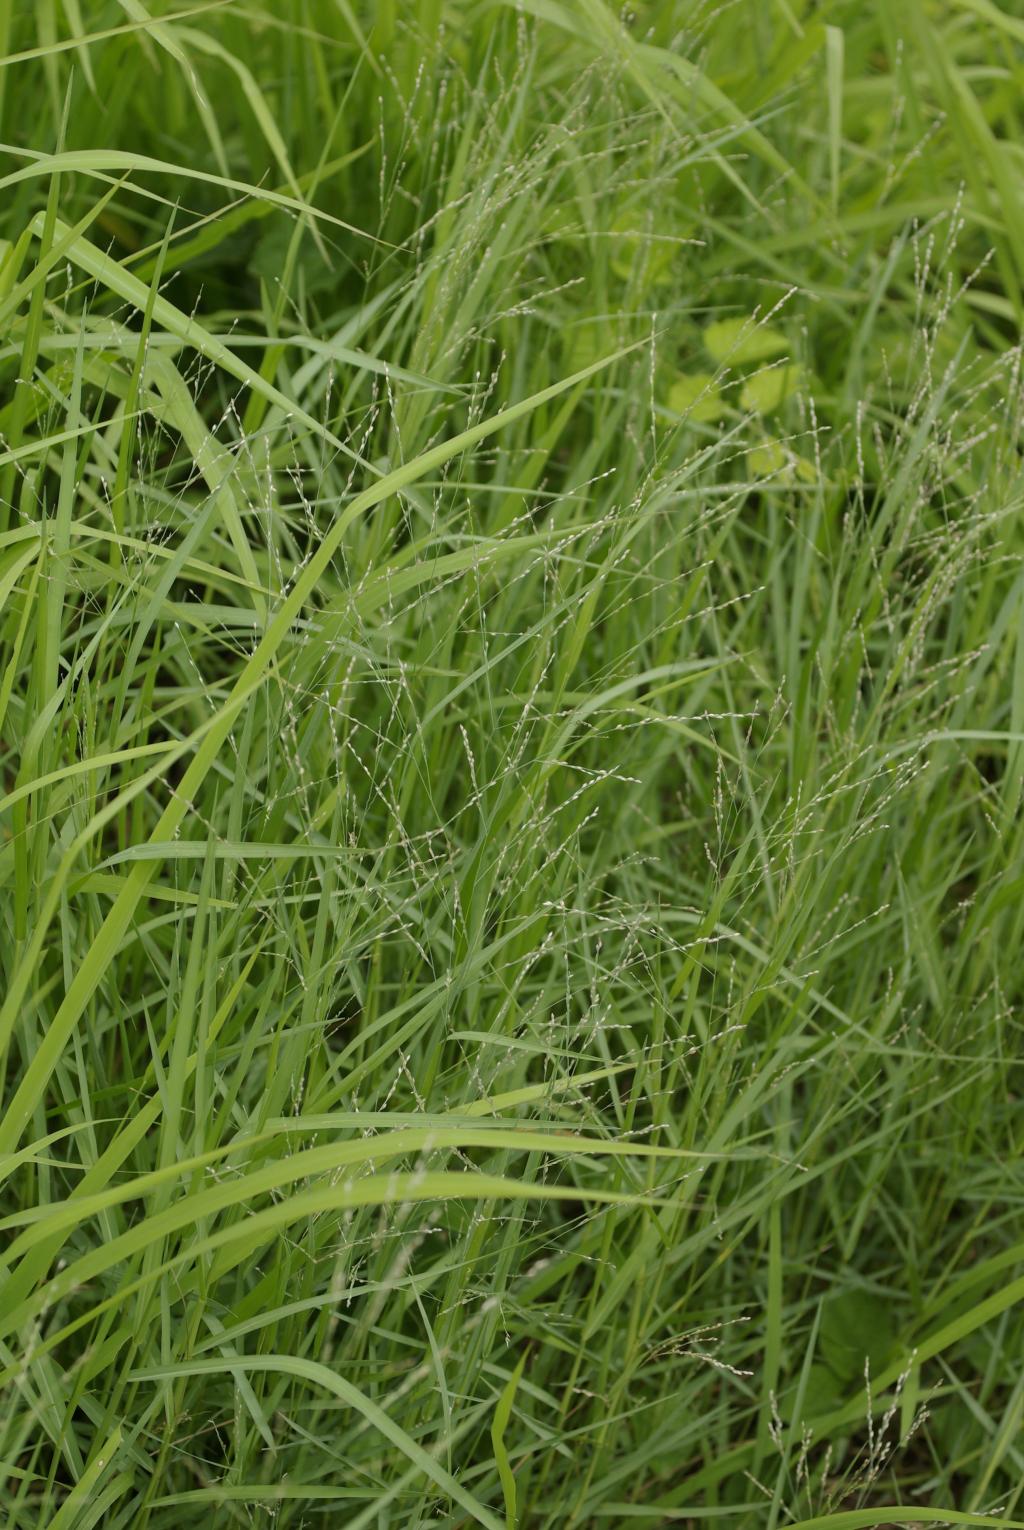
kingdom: Plantae
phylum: Tracheophyta
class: Liliopsida
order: Poales
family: Poaceae
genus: Panicum
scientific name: Panicum repens
